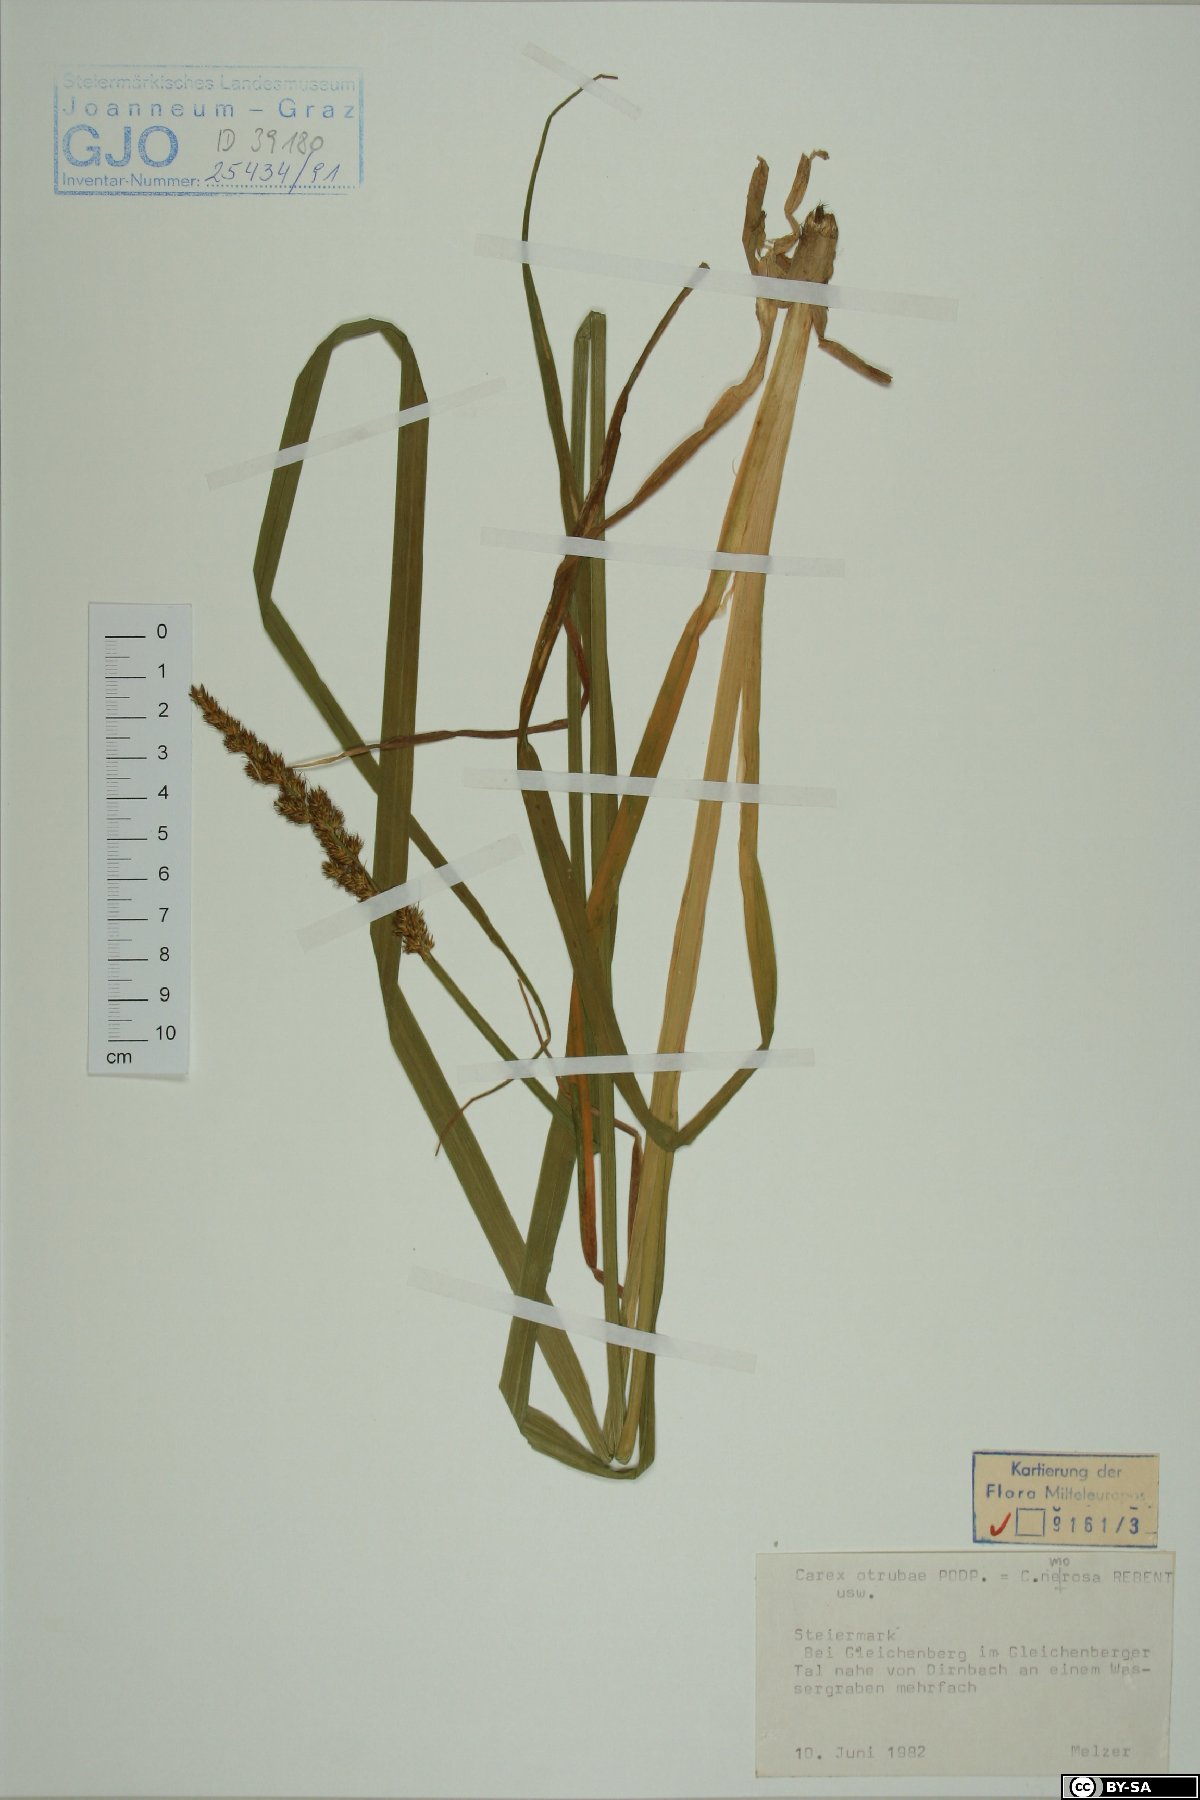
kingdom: Plantae
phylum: Tracheophyta
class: Liliopsida
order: Poales
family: Cyperaceae
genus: Carex
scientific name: Carex otrubae
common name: False fox-sedge
